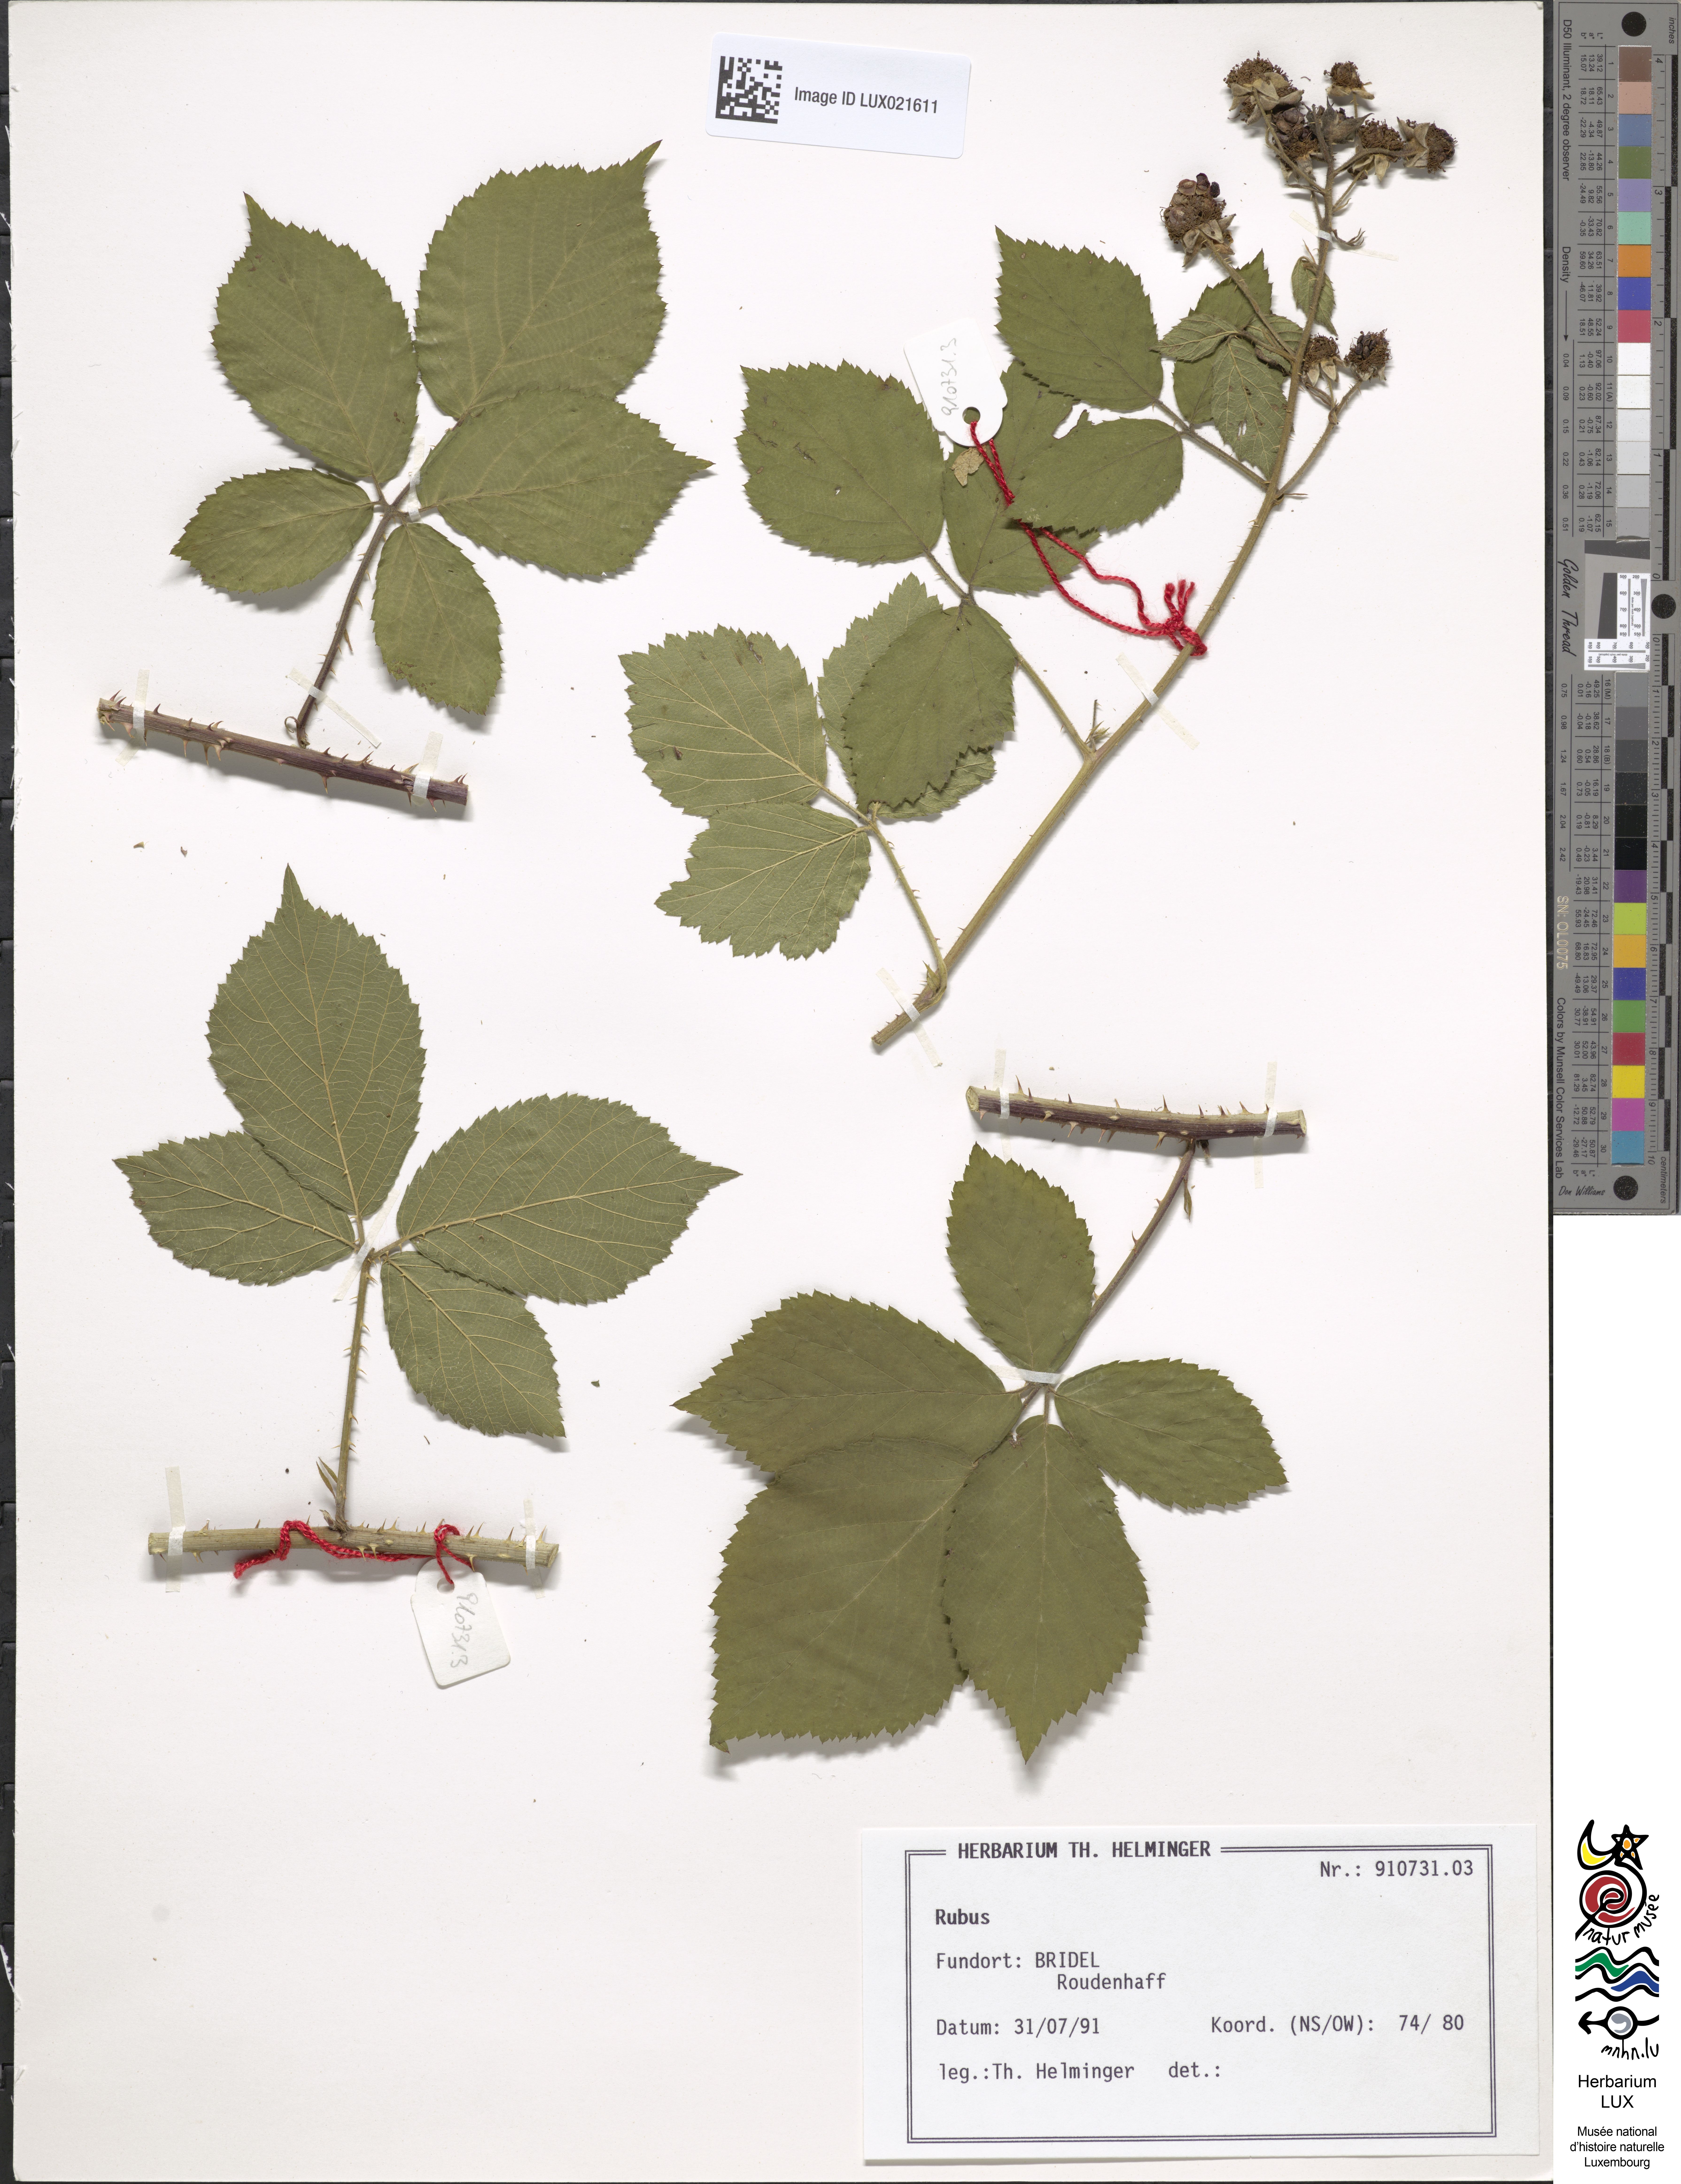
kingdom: Plantae
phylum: Tracheophyta
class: Magnoliopsida
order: Rosales
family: Rosaceae
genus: Rubus
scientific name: Rubus
